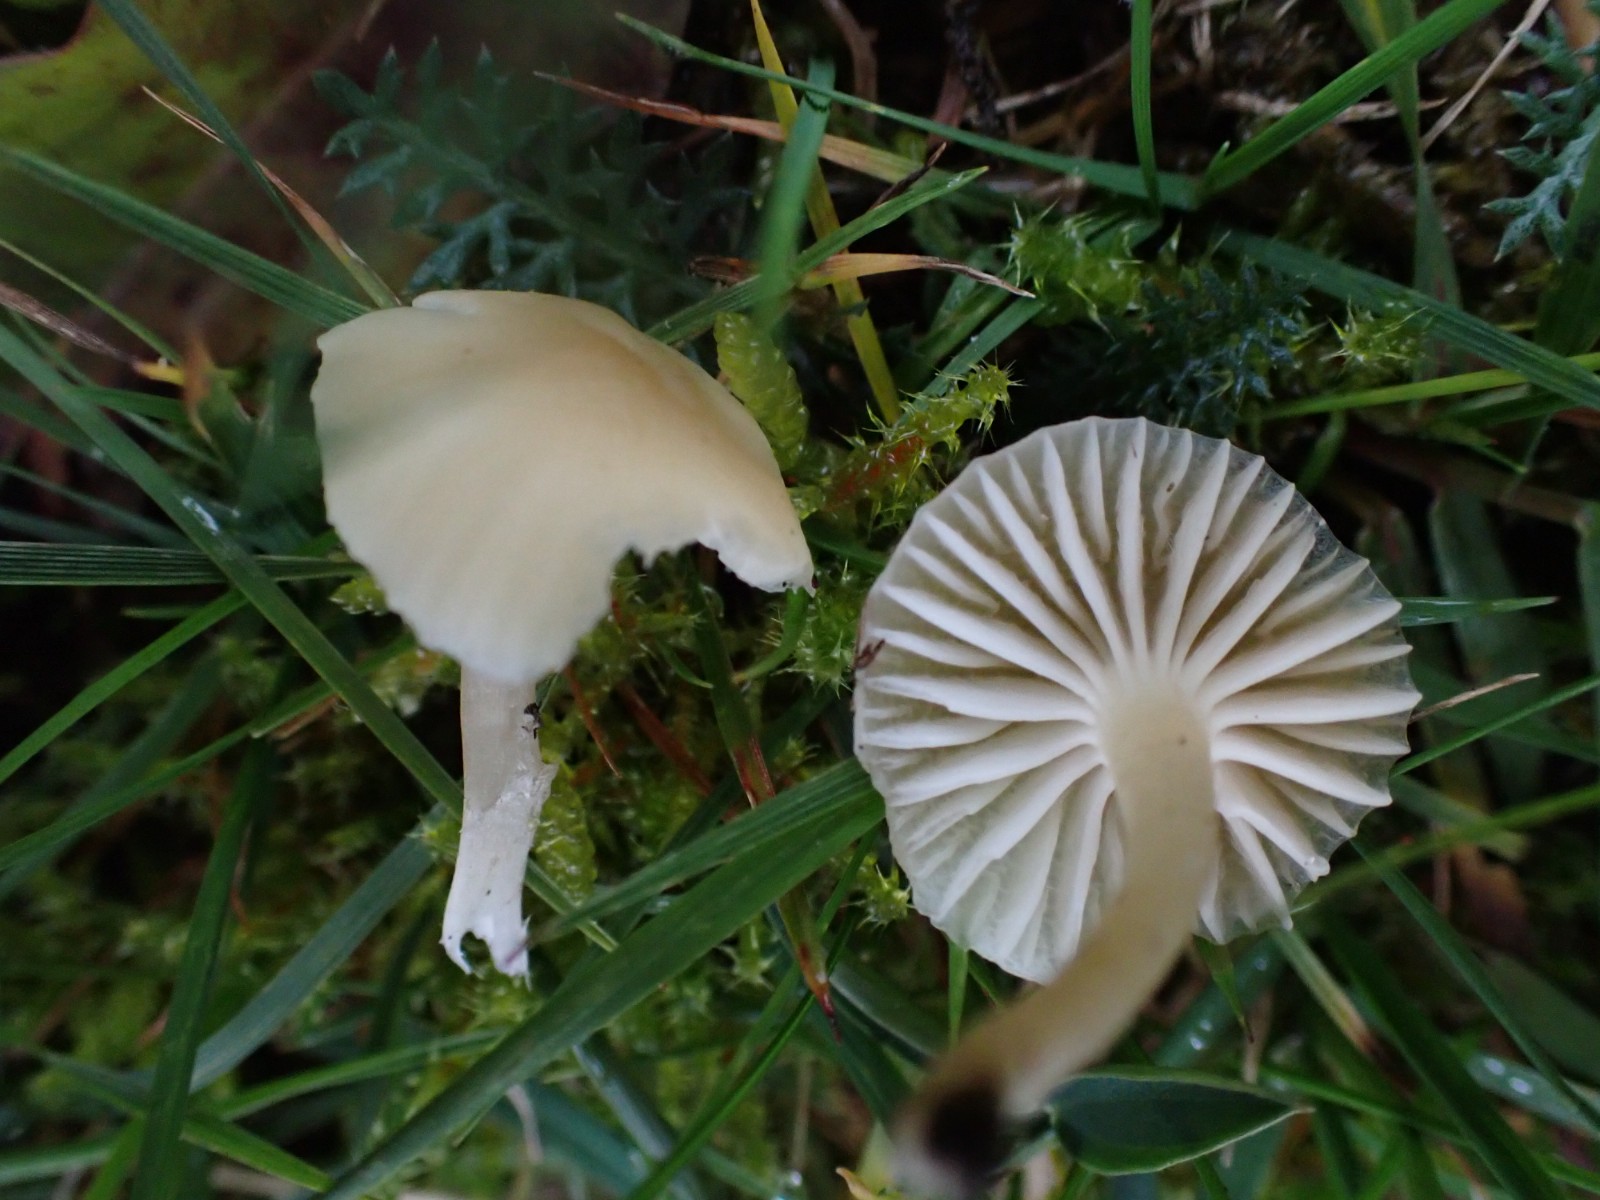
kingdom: Fungi
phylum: Basidiomycota
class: Agaricomycetes
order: Agaricales
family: Hygrophoraceae
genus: Cuphophyllus
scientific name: Cuphophyllus russocoriaceus
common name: ruslæder-vokshat
